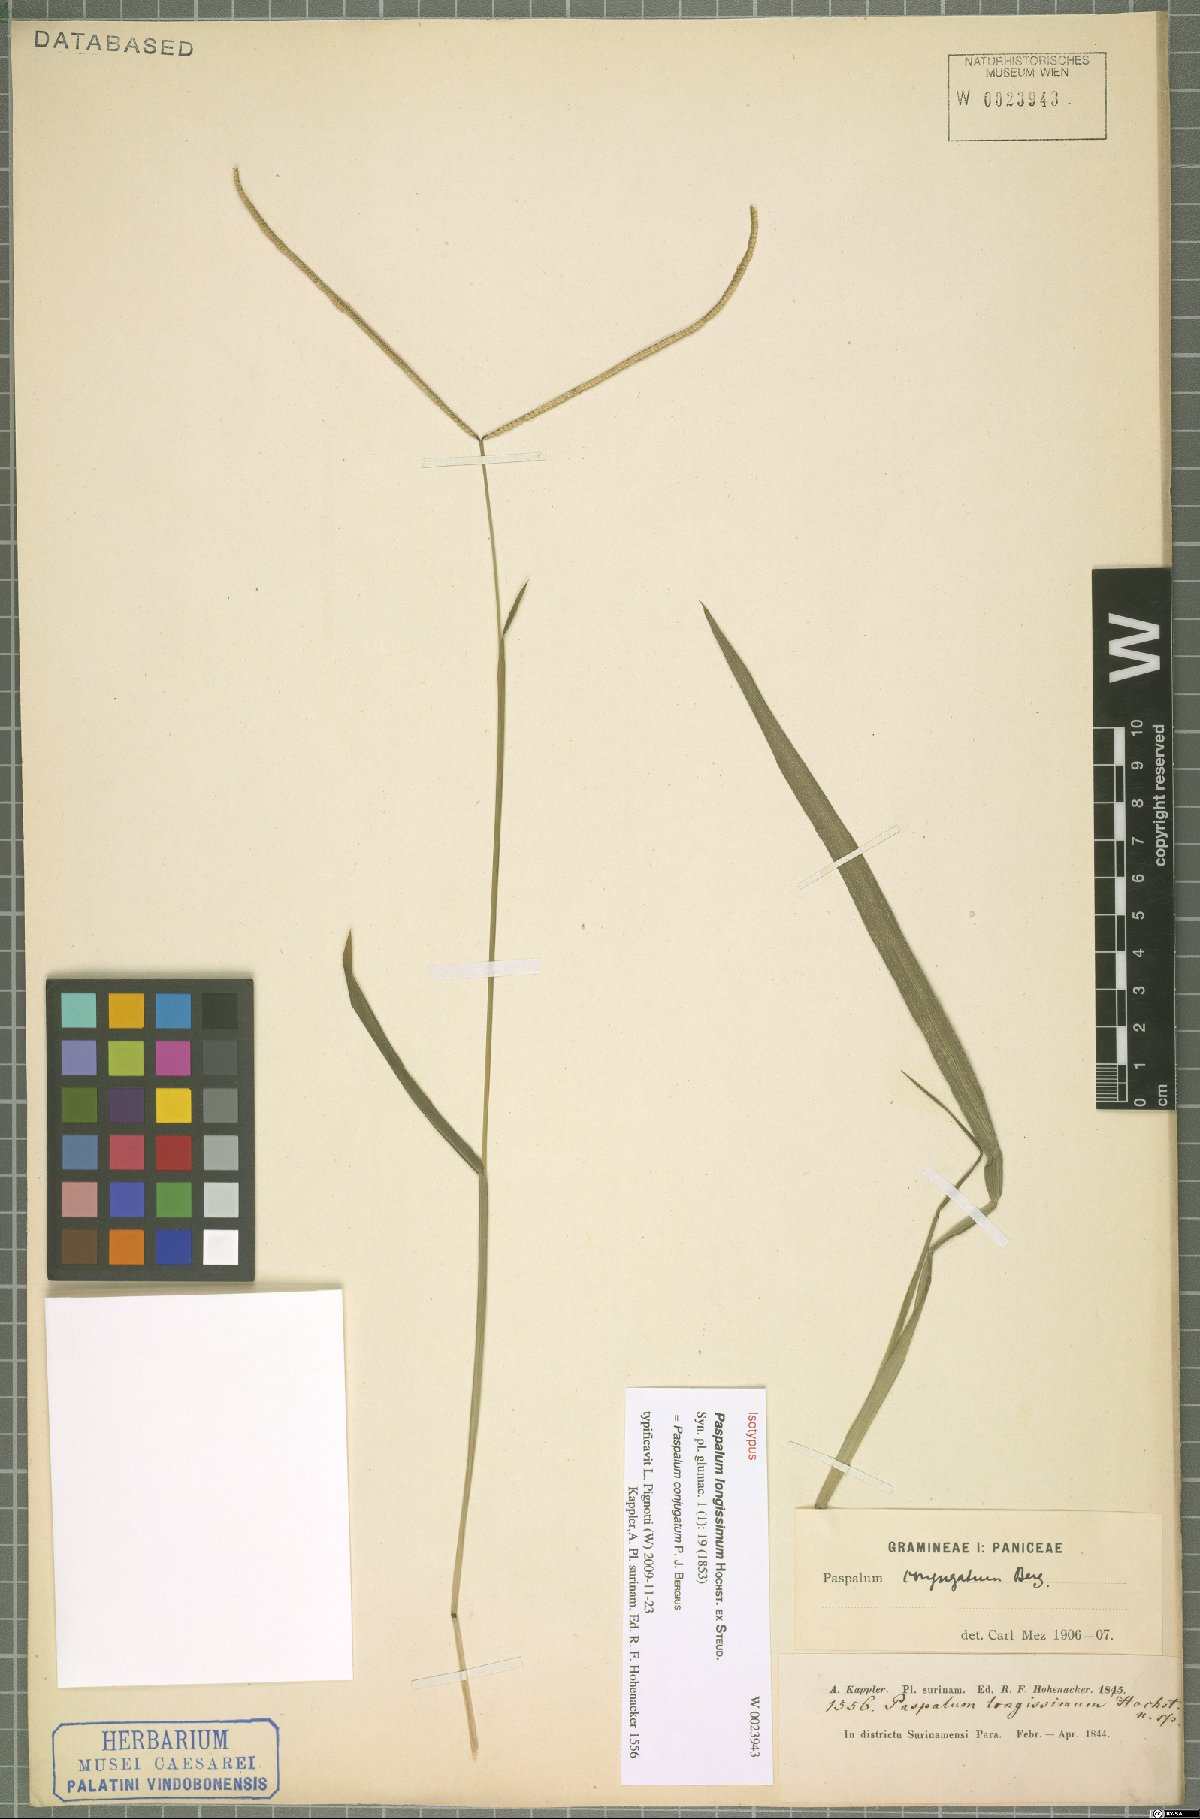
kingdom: Plantae
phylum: Tracheophyta
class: Liliopsida
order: Poales
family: Poaceae
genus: Paspalum
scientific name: Paspalum conjugatum
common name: Hilograss
